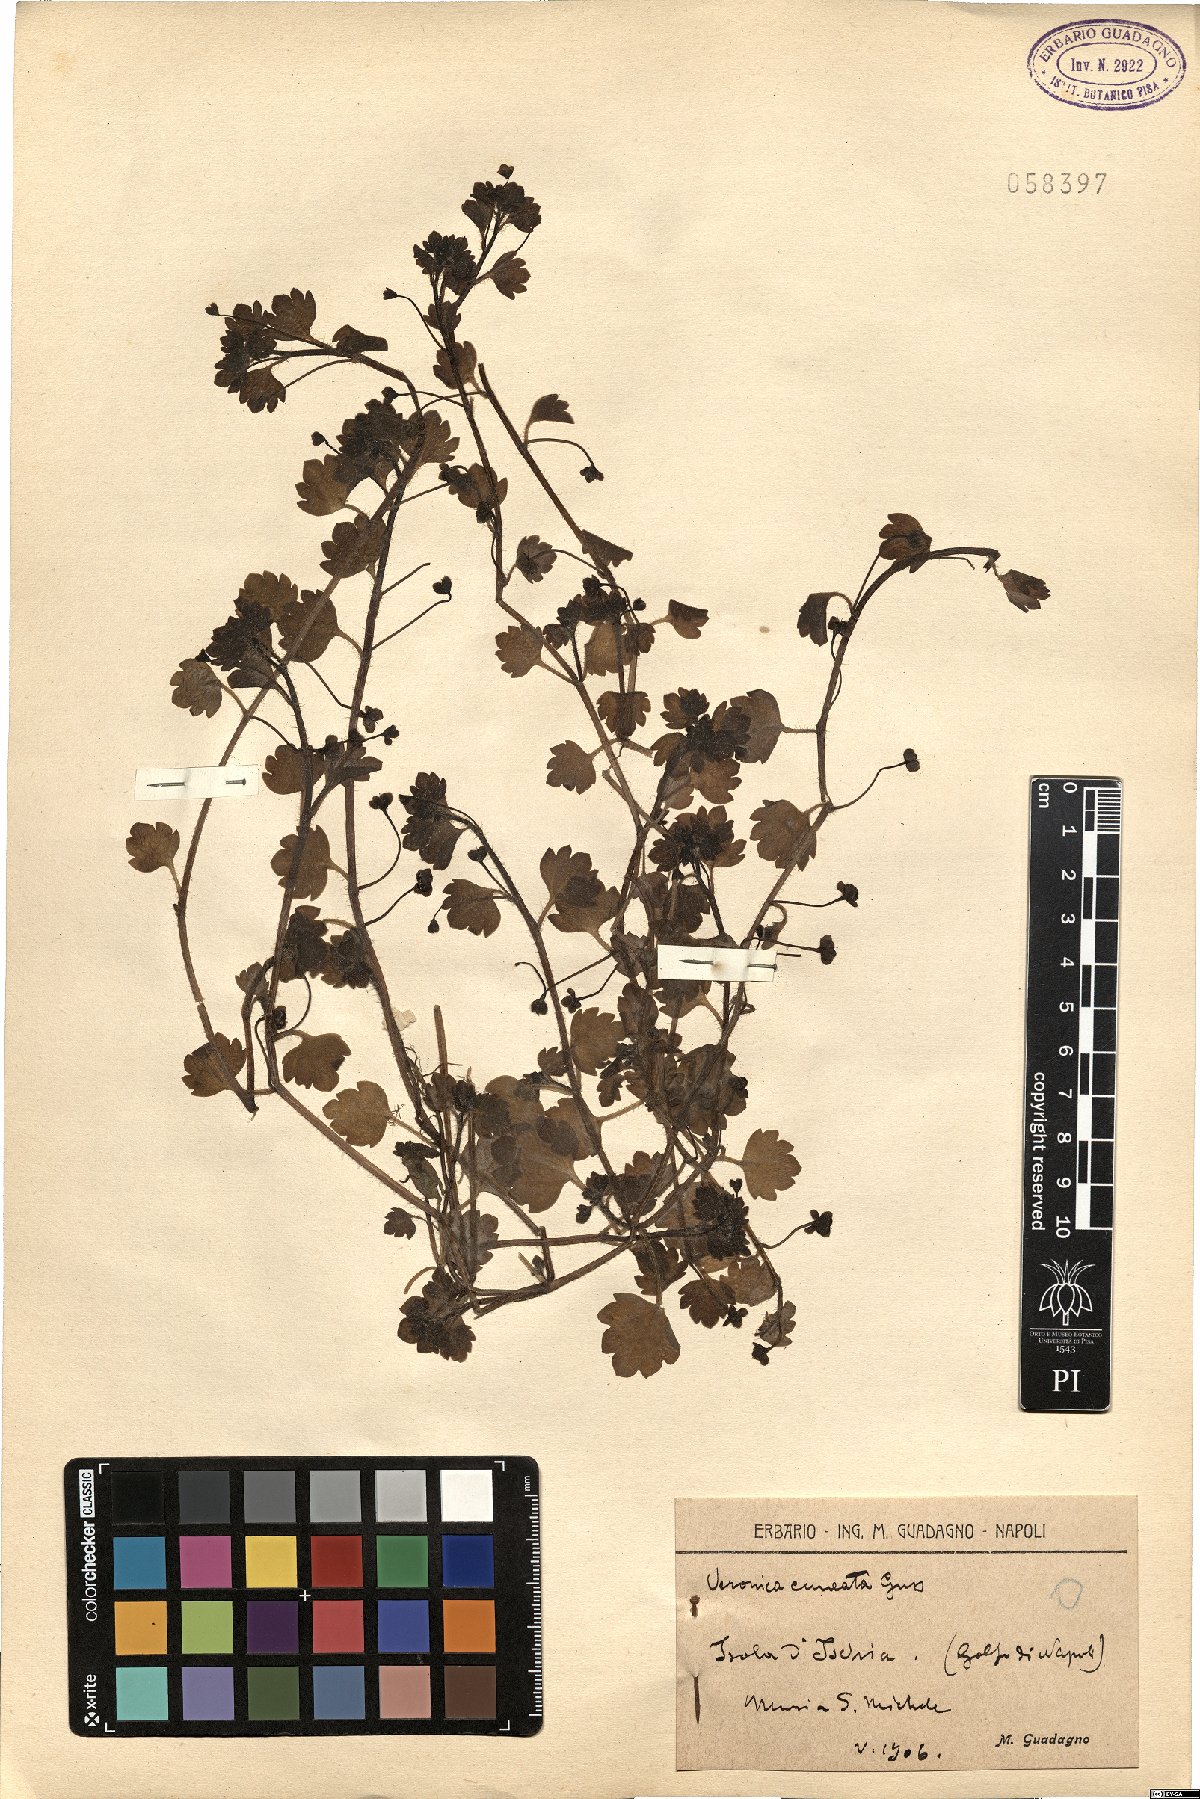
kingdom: Plantae
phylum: Tracheophyta
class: Magnoliopsida
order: Lamiales
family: Plantaginaceae
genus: Veronica
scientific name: Veronica cymbalaria
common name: Pale speedwell
